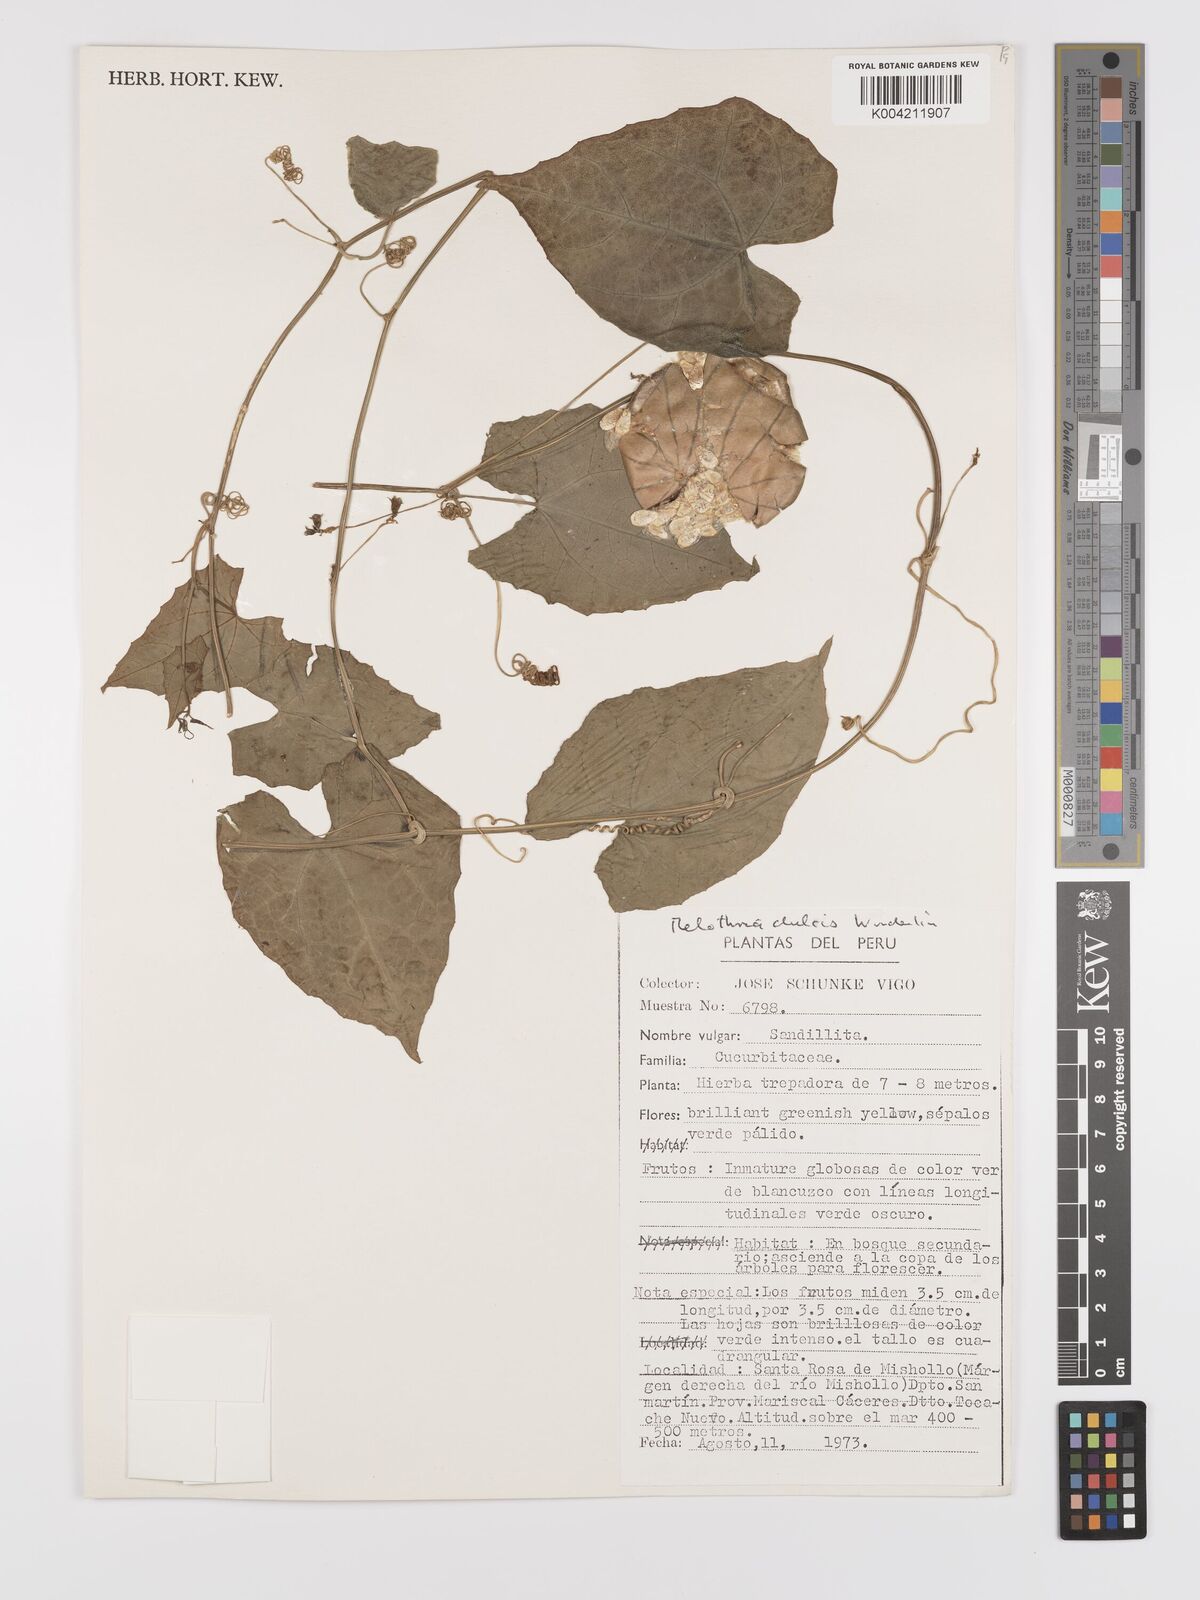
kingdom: Plantae
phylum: Tracheophyta
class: Magnoliopsida
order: Cucurbitales
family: Cucurbitaceae
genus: Melothria
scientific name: Melothria dulcis
